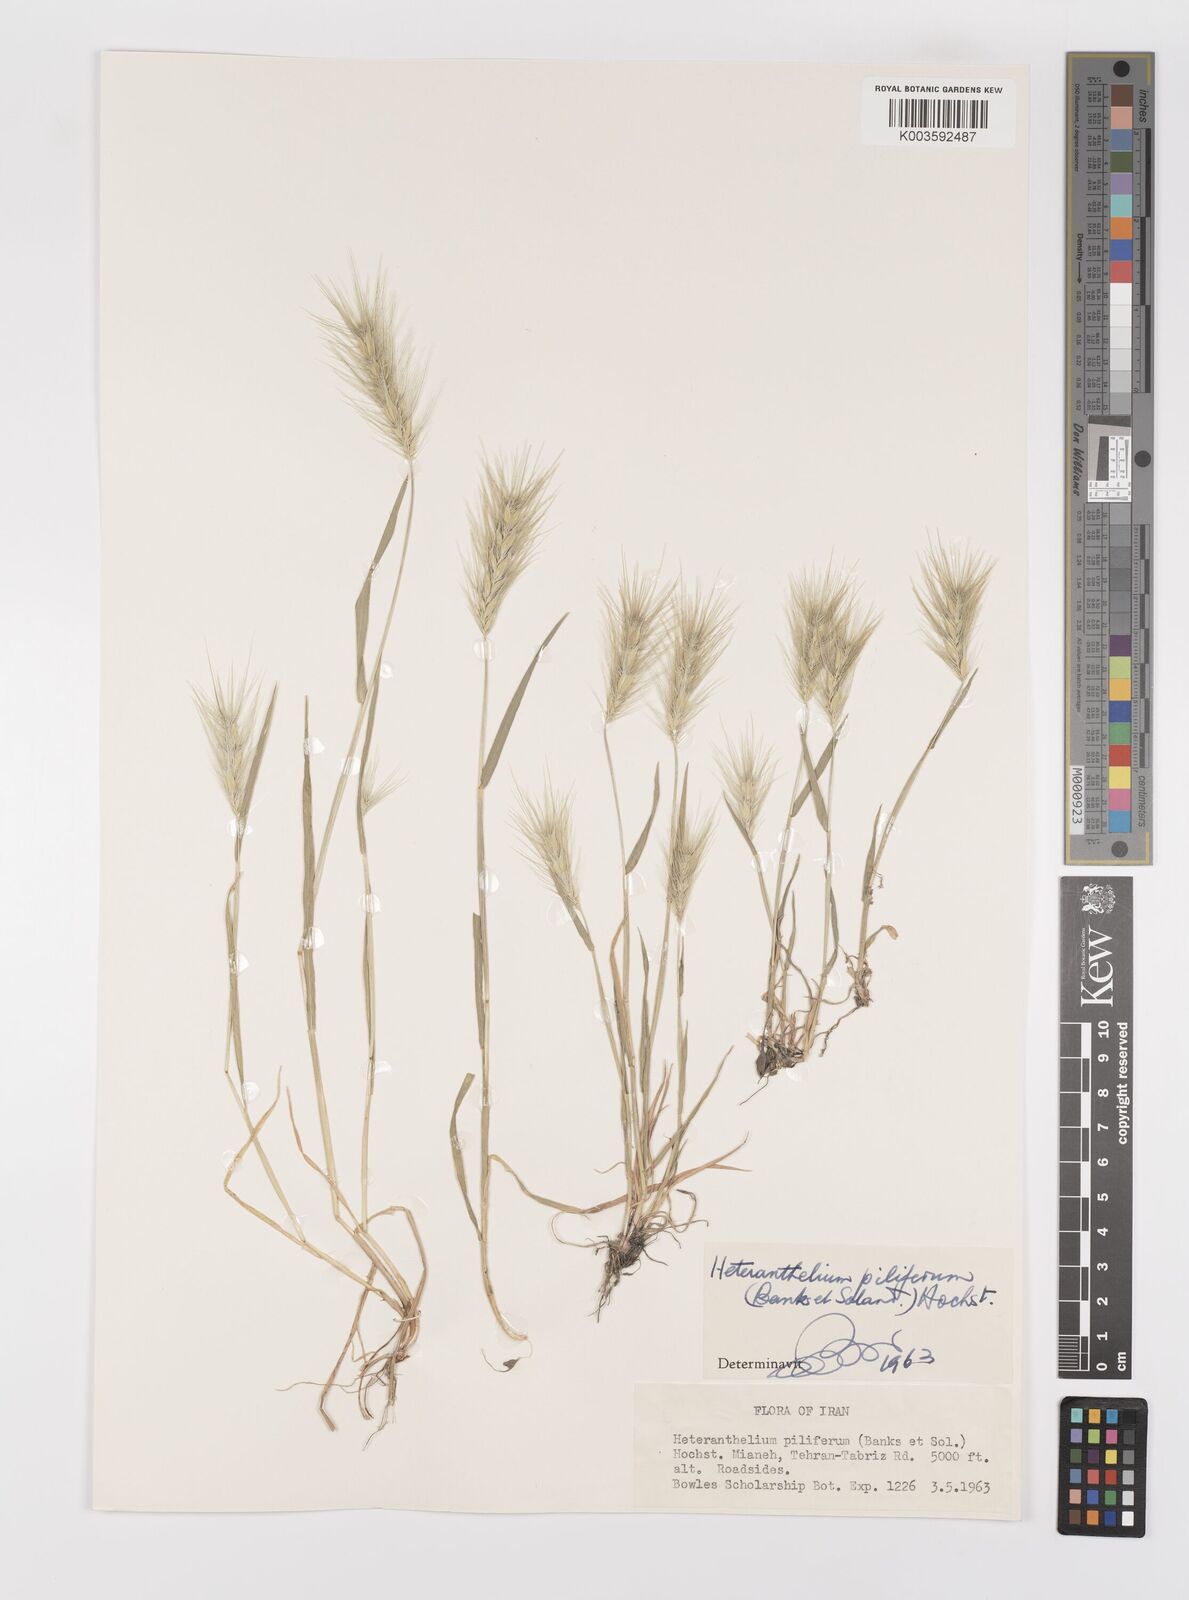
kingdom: Plantae
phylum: Tracheophyta
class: Liliopsida
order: Poales
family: Poaceae
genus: Heteranthelium
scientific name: Heteranthelium piliferum
